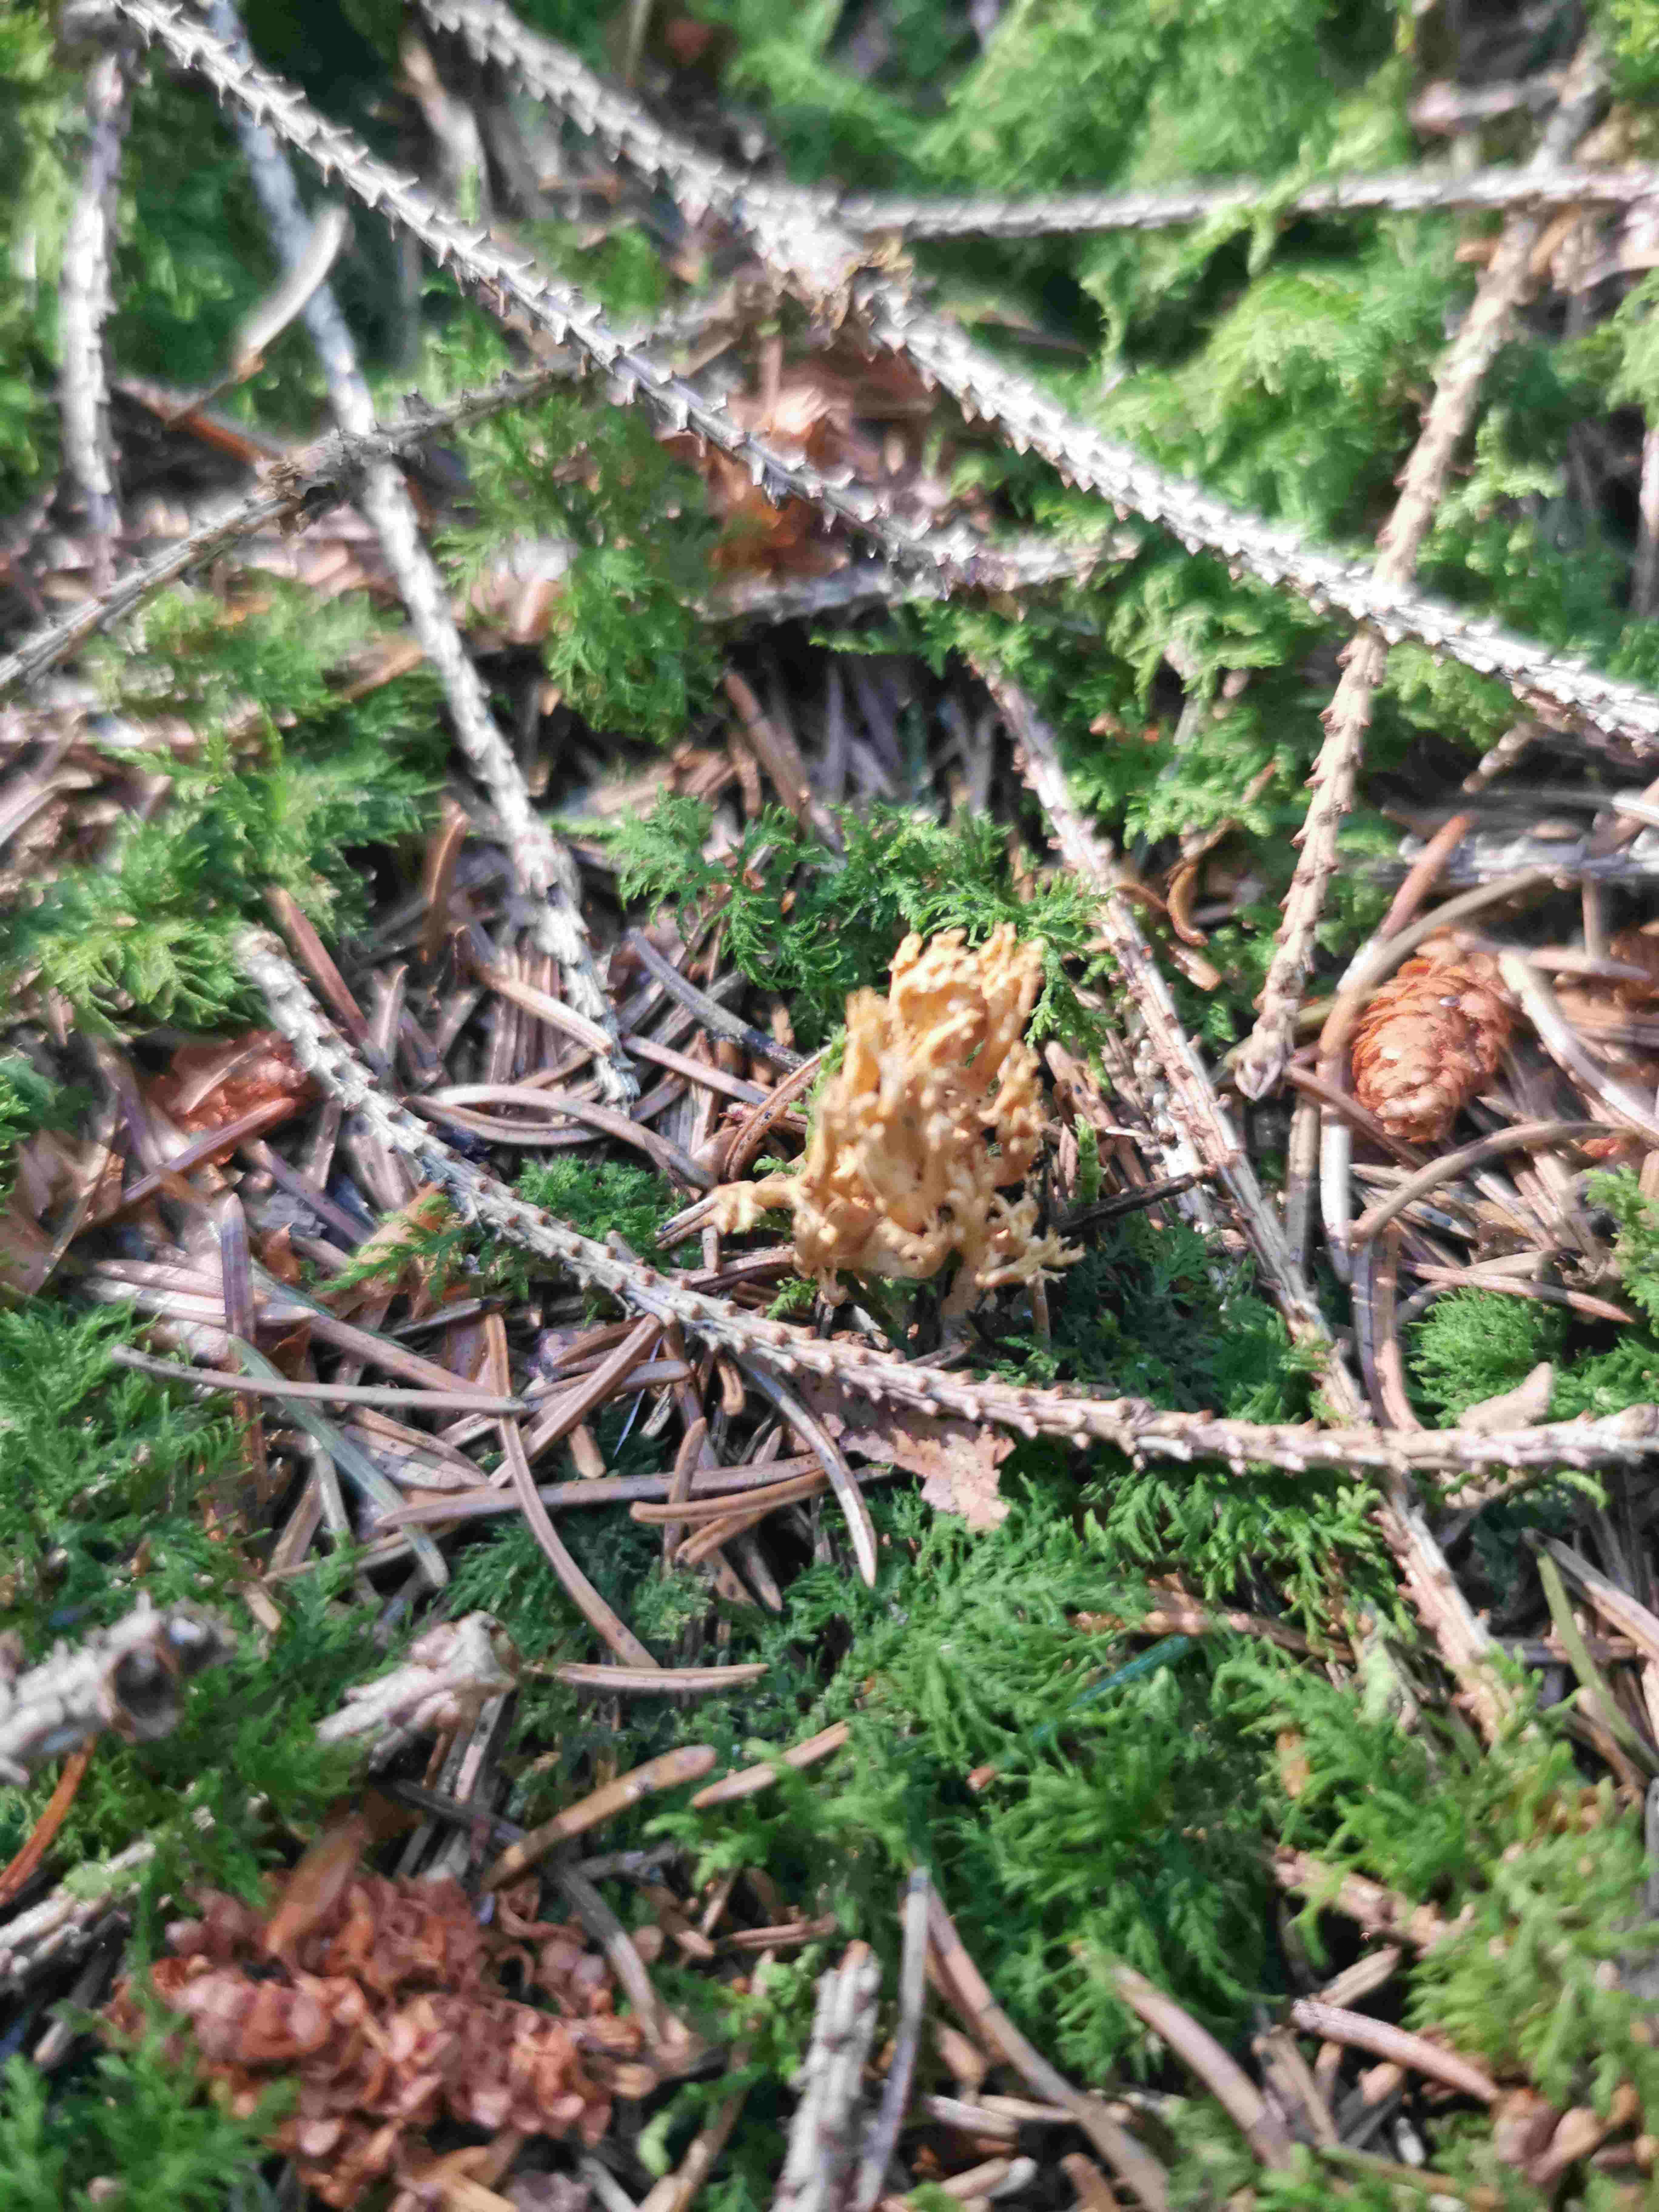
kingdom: Fungi
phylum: Basidiomycota
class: Dacrymycetes
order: Dacrymycetales
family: Dacrymycetaceae
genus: Calocera
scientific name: Calocera viscosa
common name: almindelig guldgaffel
